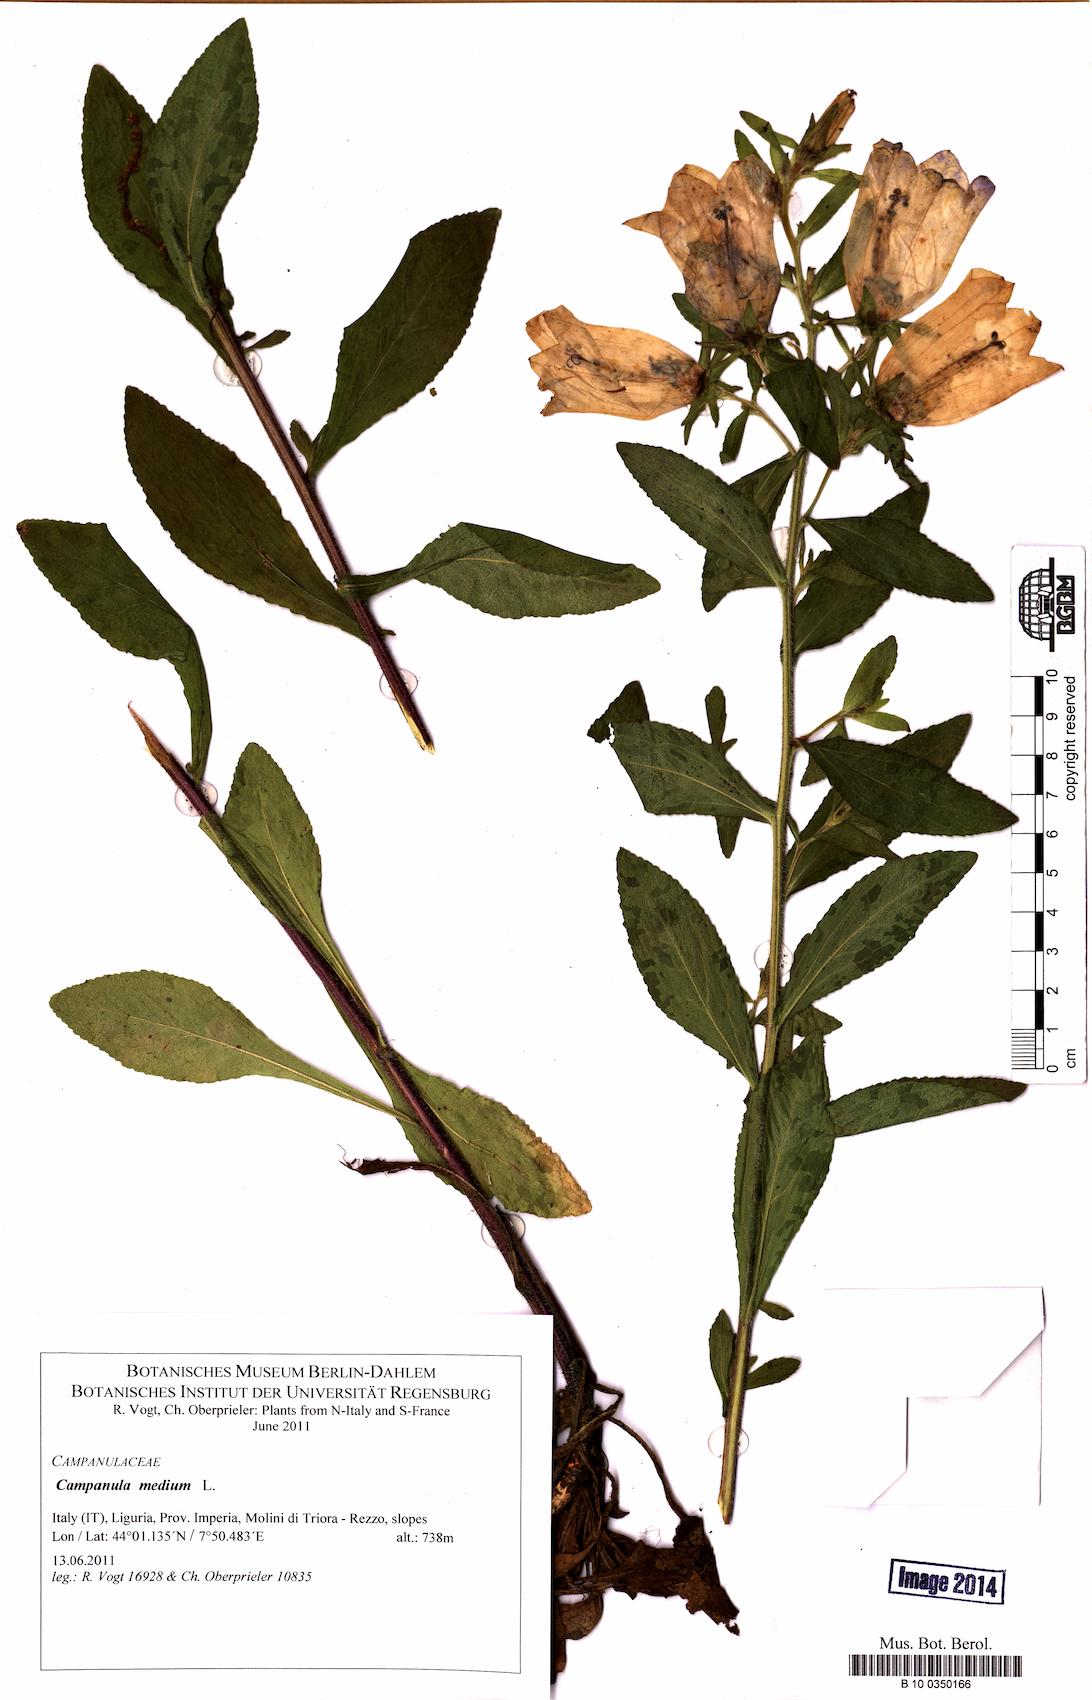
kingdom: Plantae
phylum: Tracheophyta
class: Magnoliopsida
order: Asterales
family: Campanulaceae
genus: Campanula
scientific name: Campanula medium
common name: Canterbury bells
